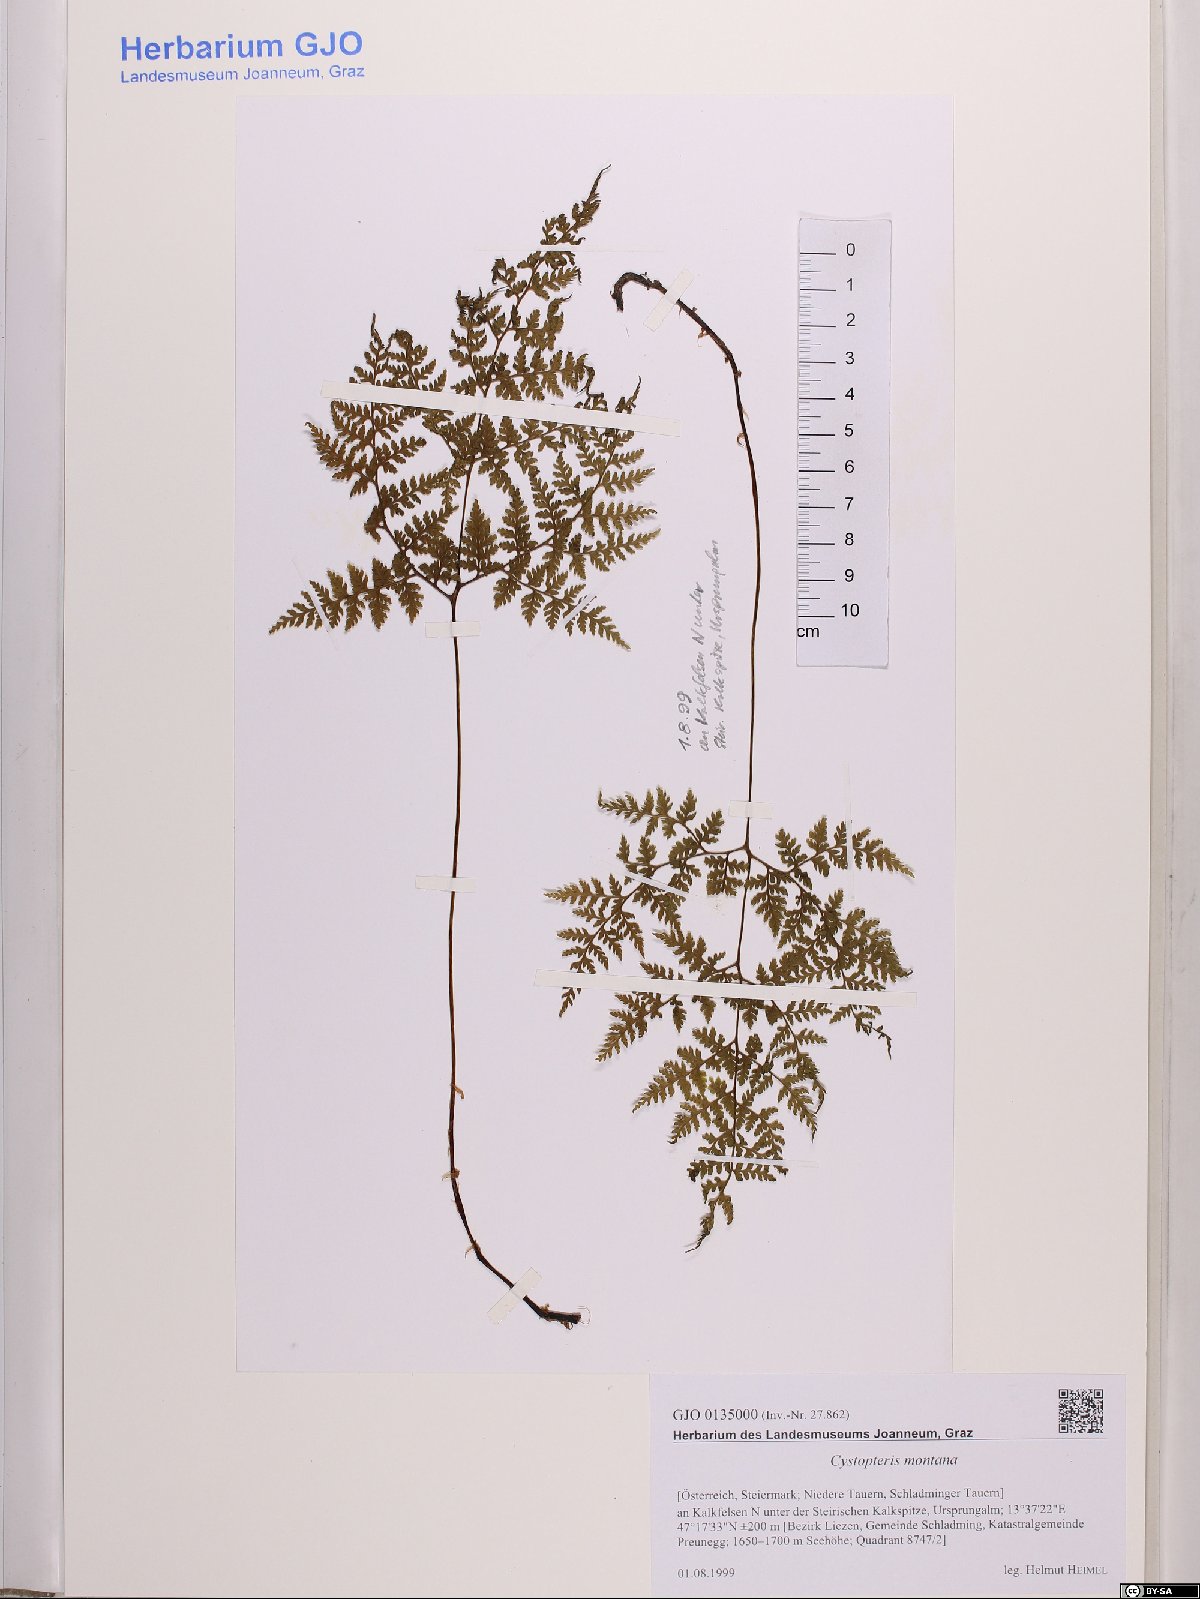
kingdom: Plantae
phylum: Tracheophyta
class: Polypodiopsida
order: Polypodiales
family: Cystopteridaceae
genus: Cystopteris
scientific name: Cystopteris montana
